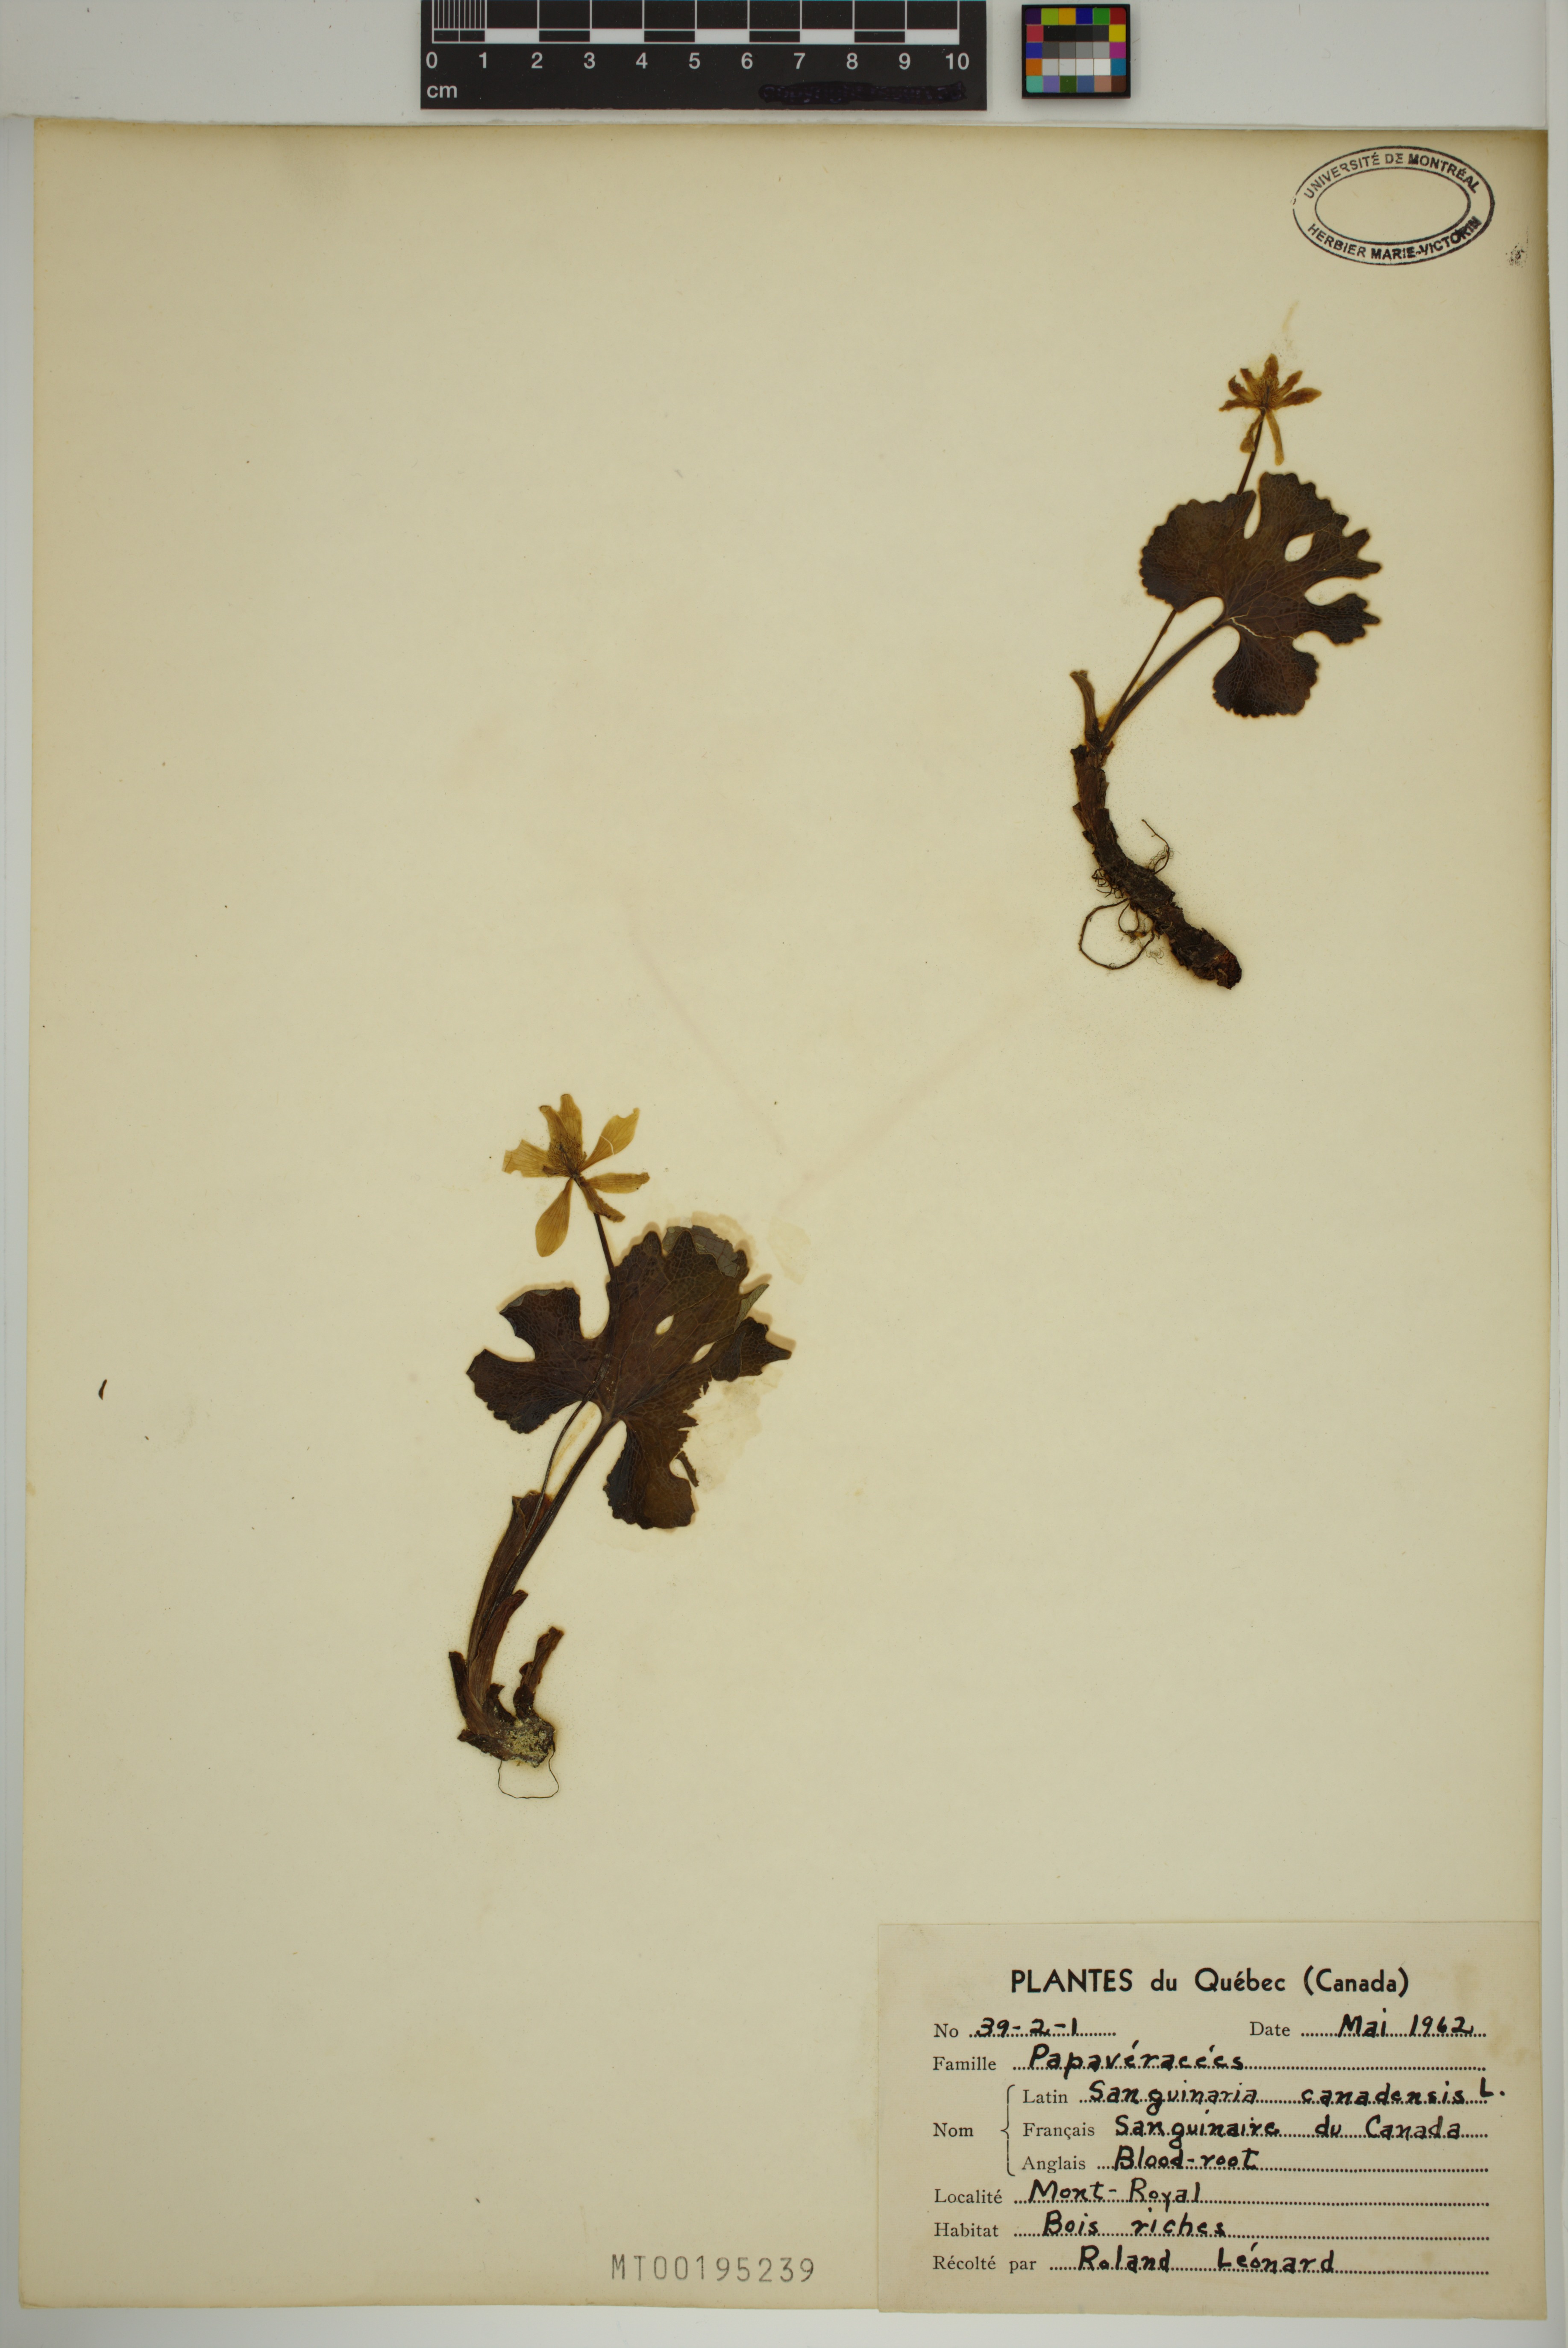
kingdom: Plantae
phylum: Tracheophyta
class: Magnoliopsida
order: Ranunculales
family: Papaveraceae
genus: Sanguinaria
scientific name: Sanguinaria canadensis
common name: Bloodroot
